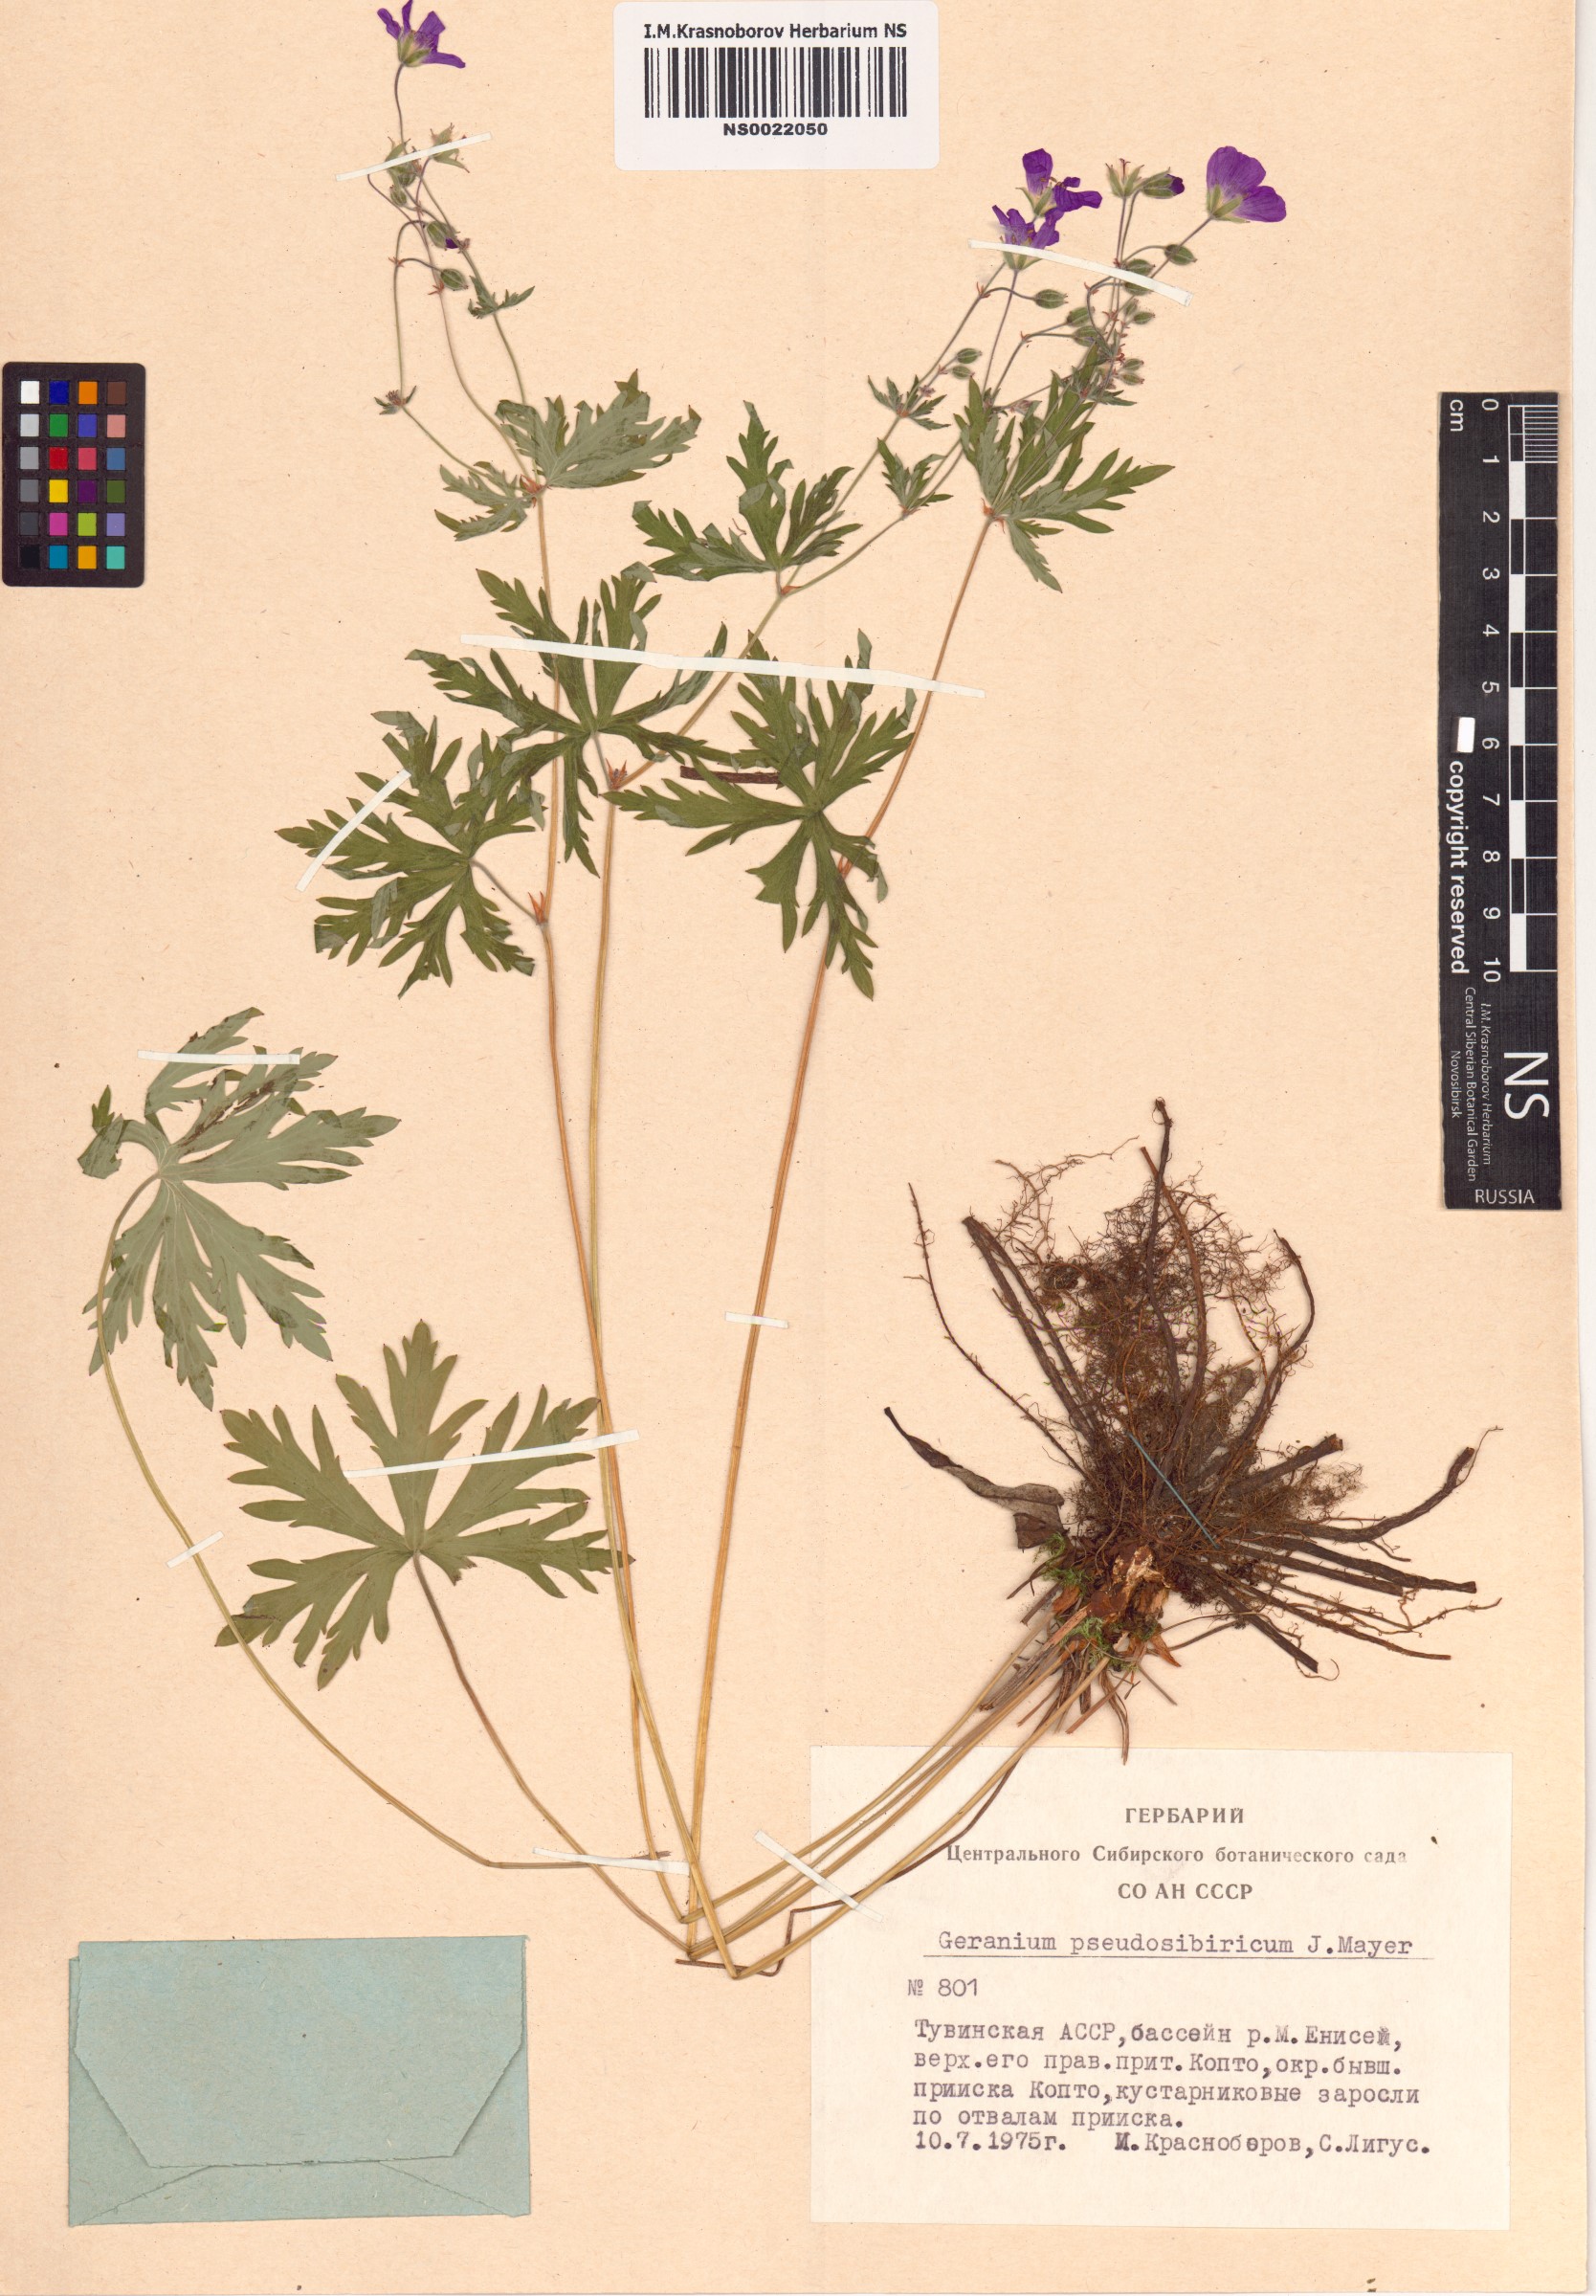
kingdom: Plantae
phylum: Tracheophyta
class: Magnoliopsida
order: Geraniales
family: Geraniaceae
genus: Geranium
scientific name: Geranium pseudosibiricum
